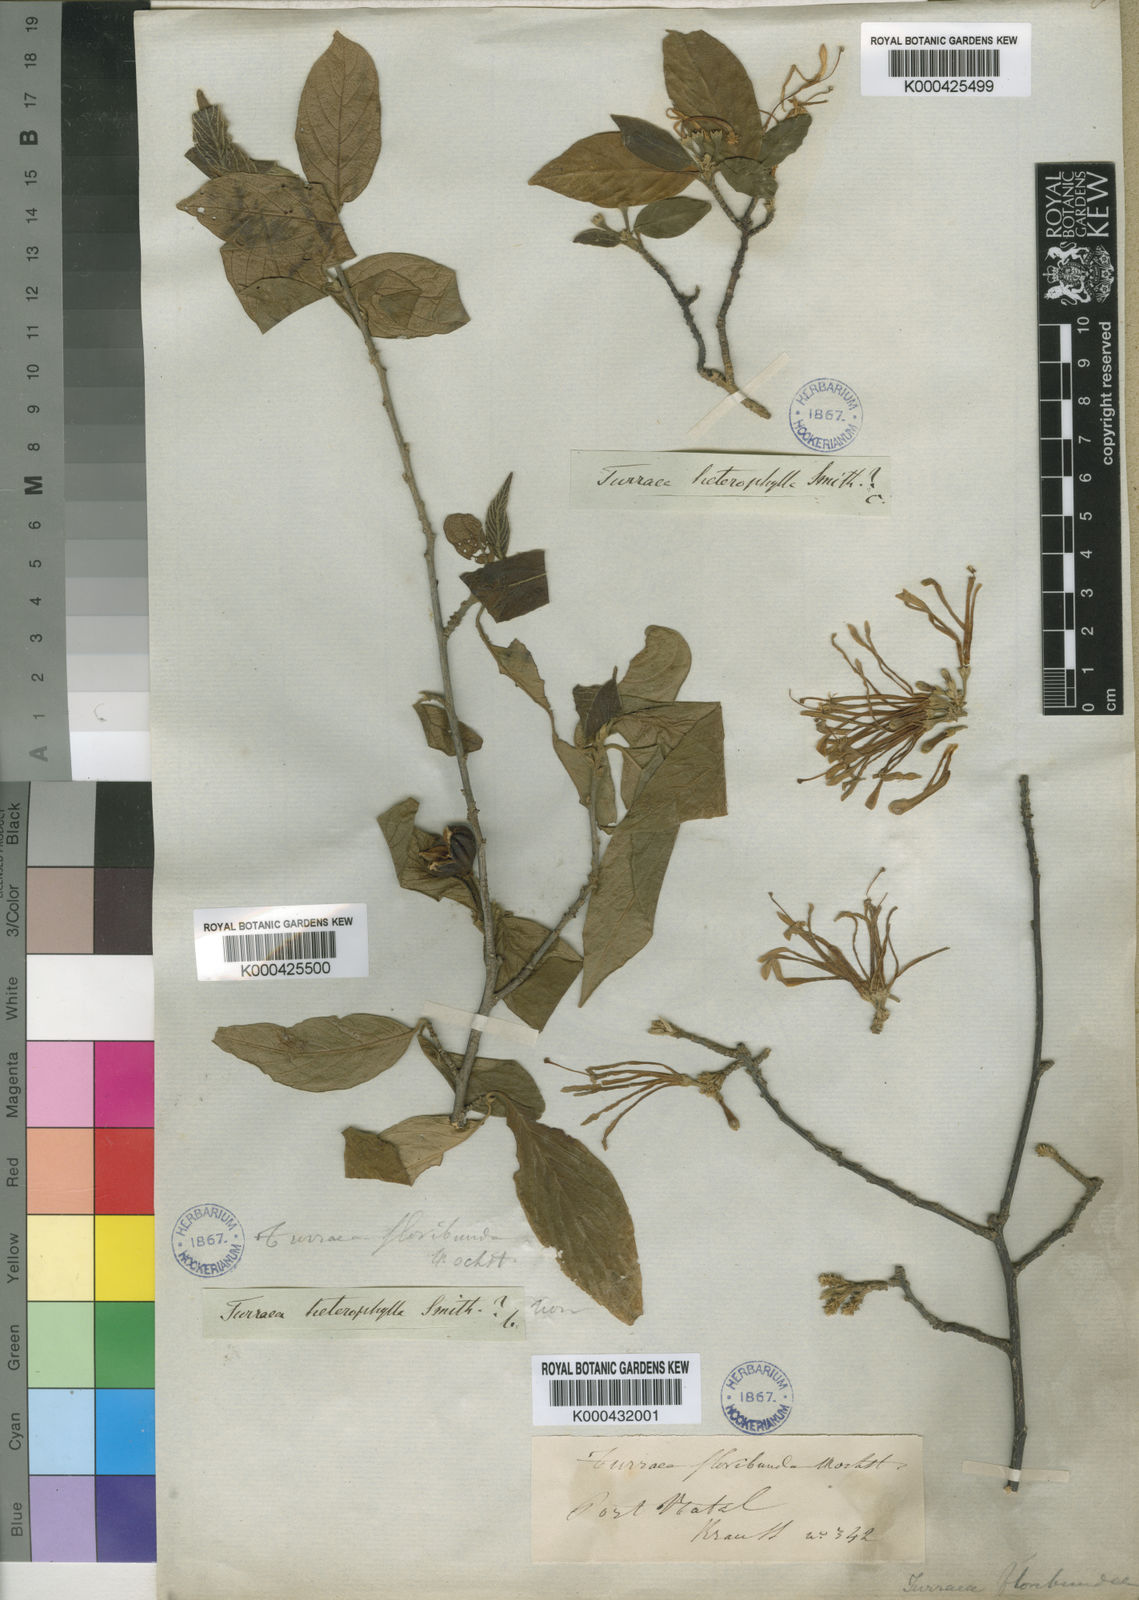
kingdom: Plantae
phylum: Tracheophyta
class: Magnoliopsida
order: Sapindales
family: Meliaceae
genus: Turraea
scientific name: Turraea floribunda
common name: Honeysuckle tree
